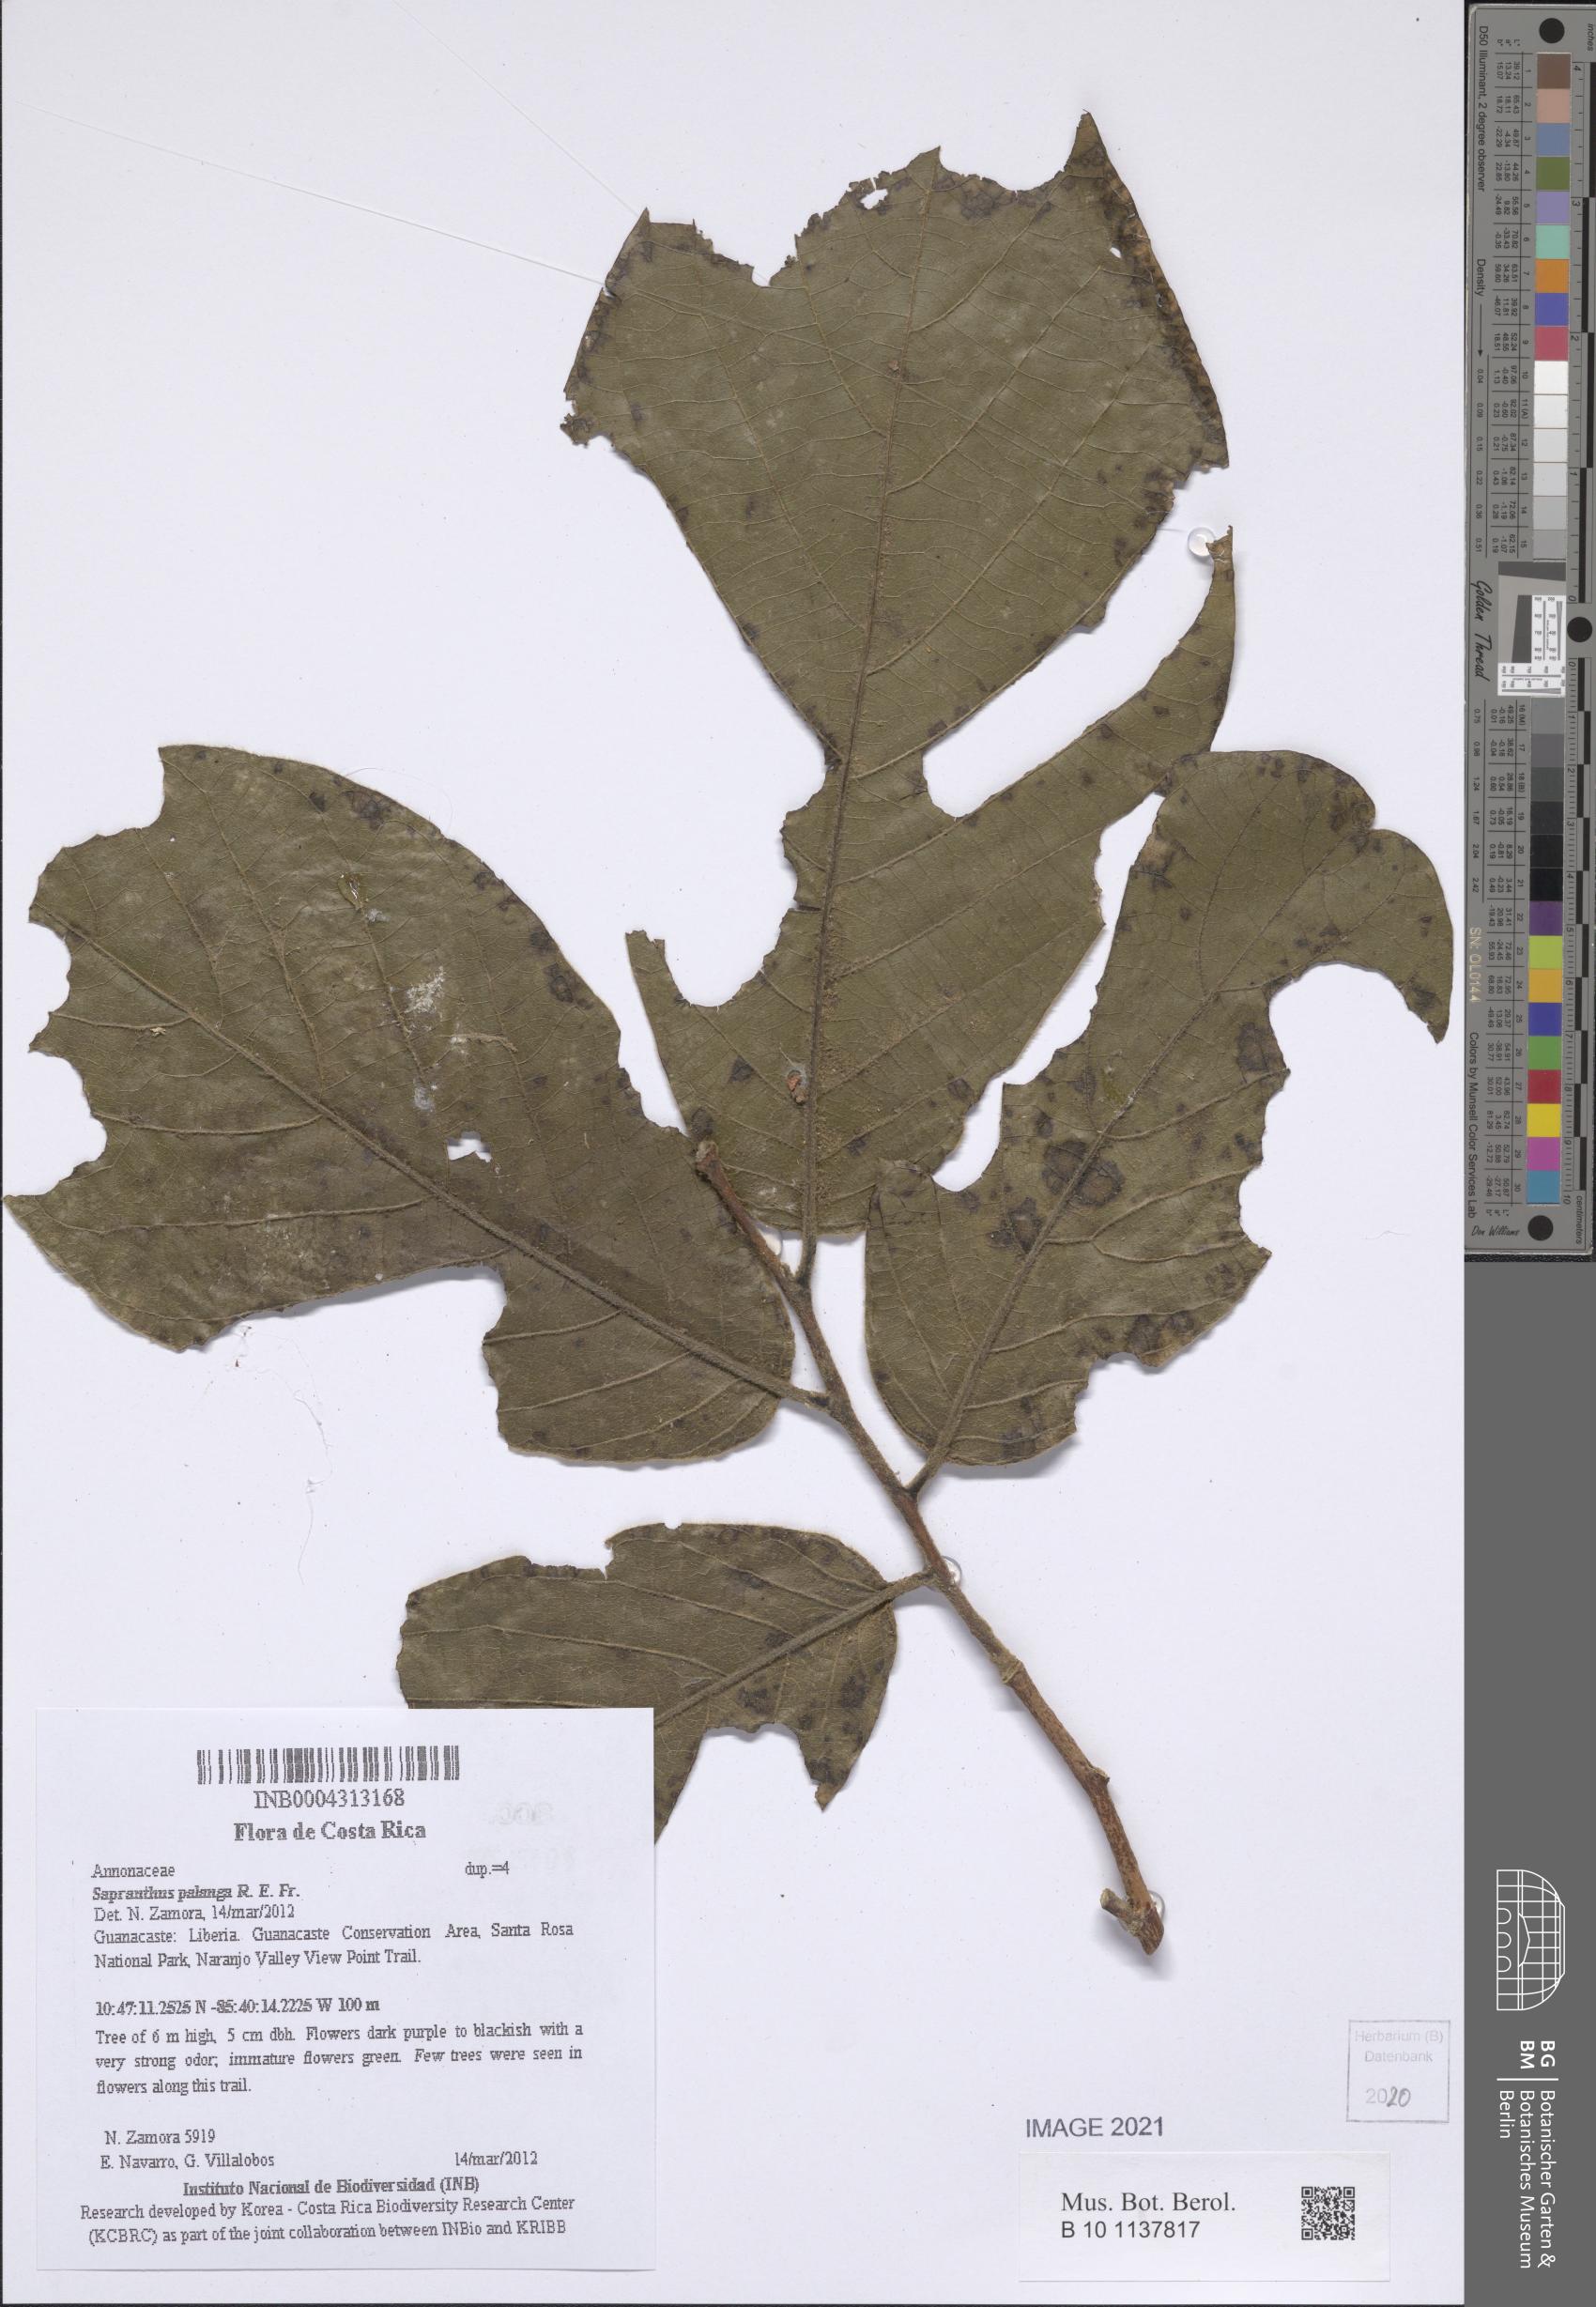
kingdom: Plantae
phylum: Tracheophyta
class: Magnoliopsida
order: Magnoliales
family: Annonaceae
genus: Sapranthus
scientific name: Sapranthus palanga
